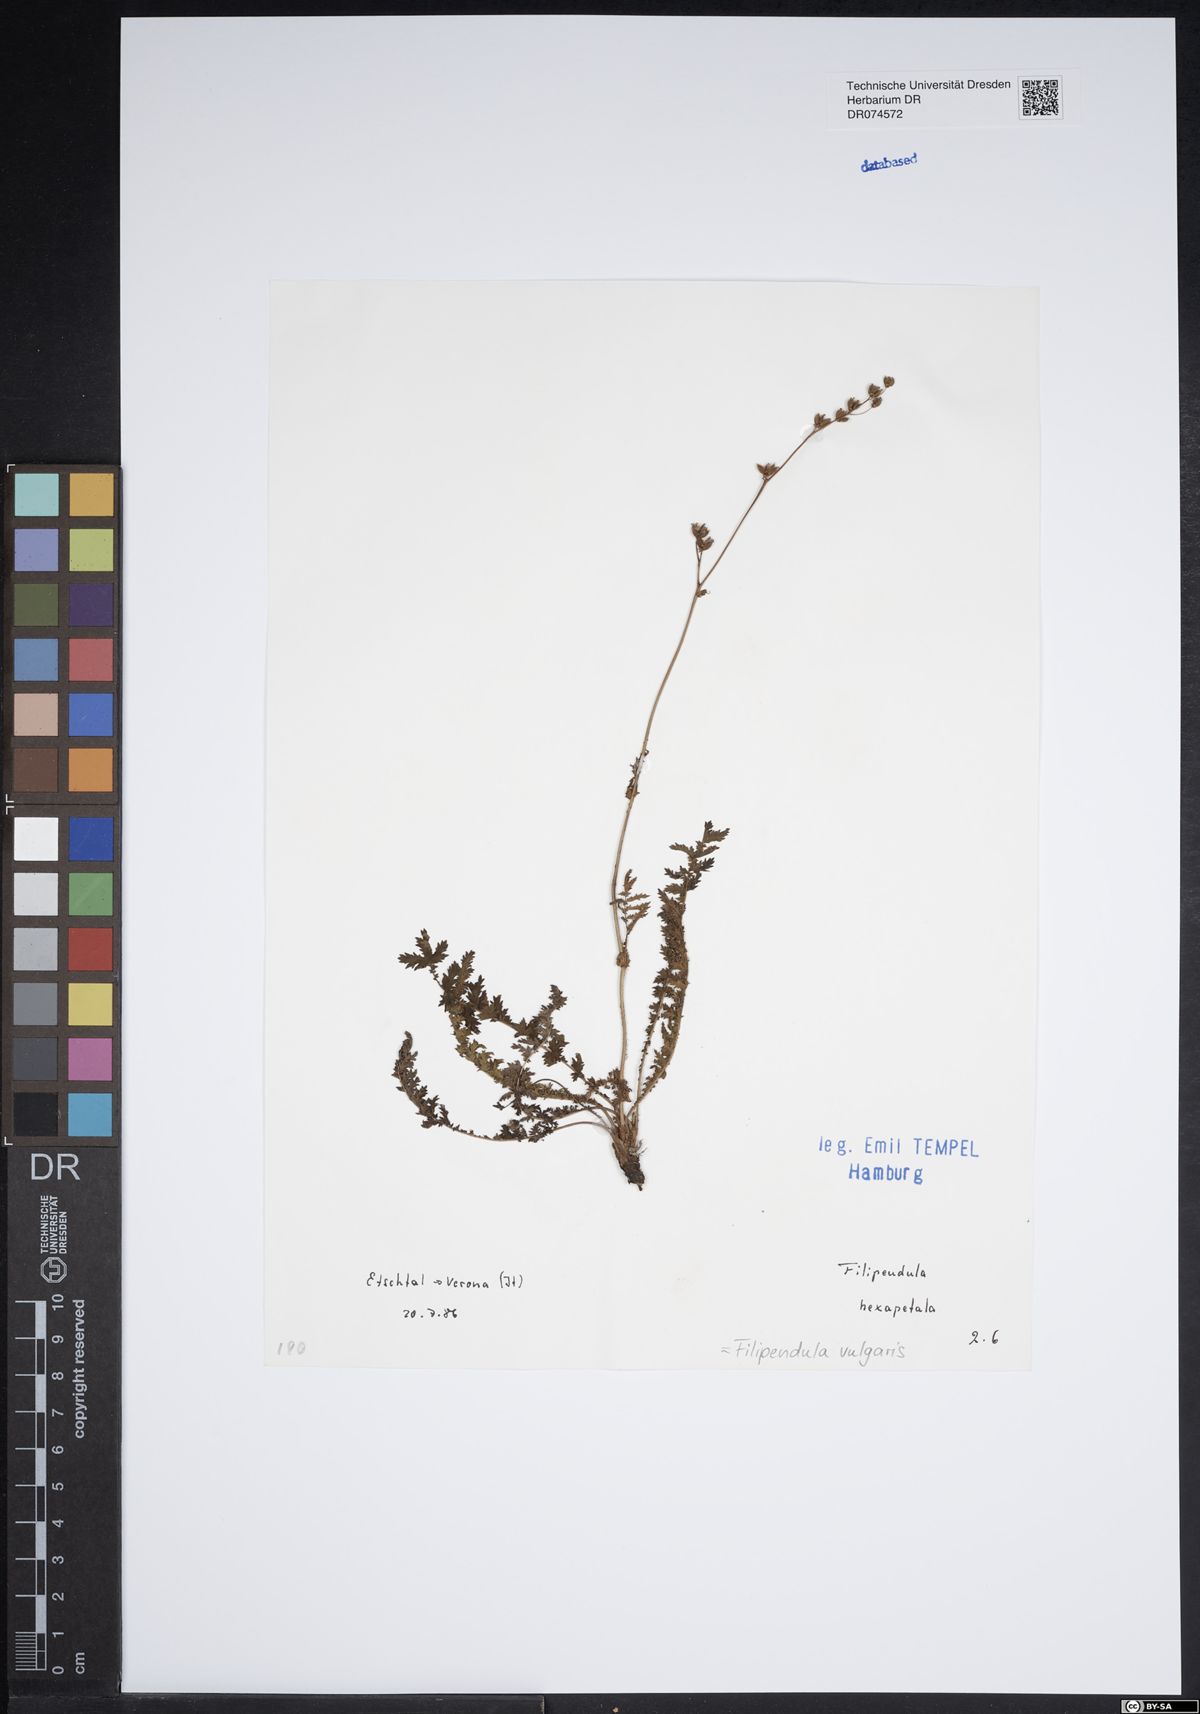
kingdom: Plantae
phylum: Tracheophyta
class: Magnoliopsida
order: Rosales
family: Rosaceae
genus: Filipendula
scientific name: Filipendula vulgaris
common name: Dropwort
